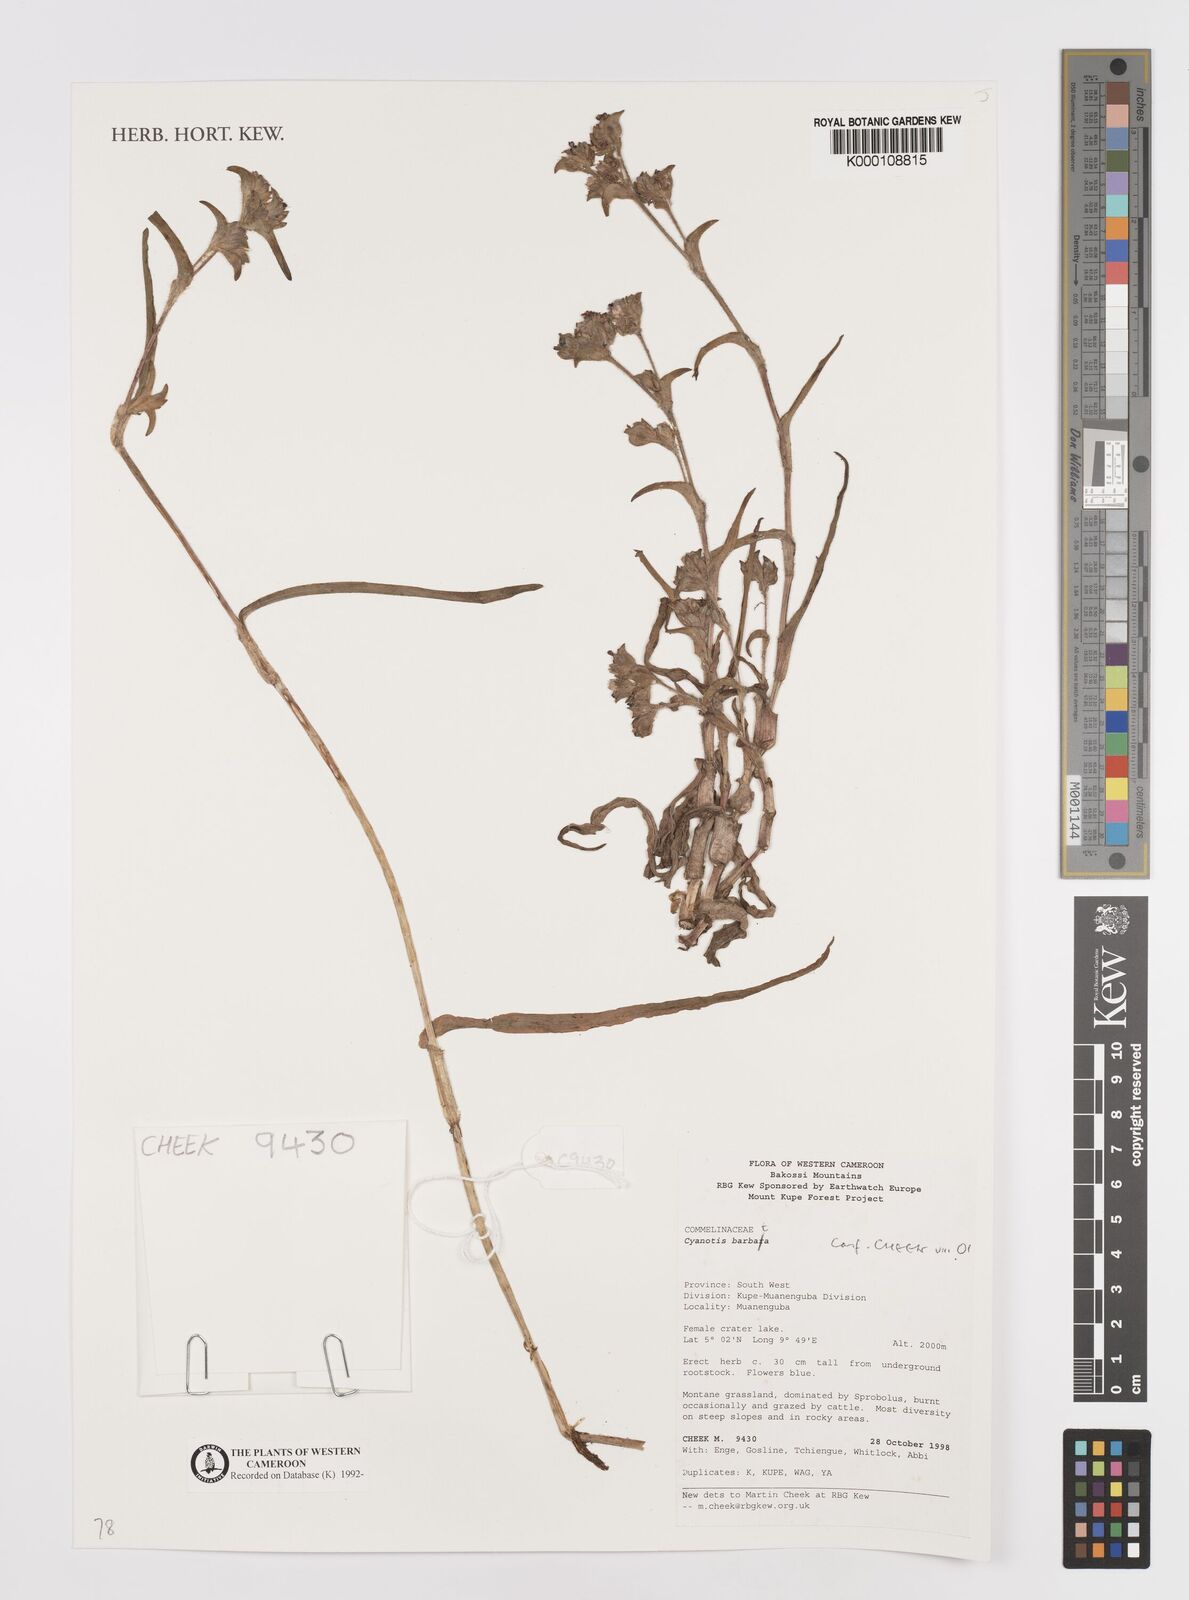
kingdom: Plantae
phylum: Tracheophyta
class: Liliopsida
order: Commelinales
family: Commelinaceae
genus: Cyanotis
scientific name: Cyanotis vaga
